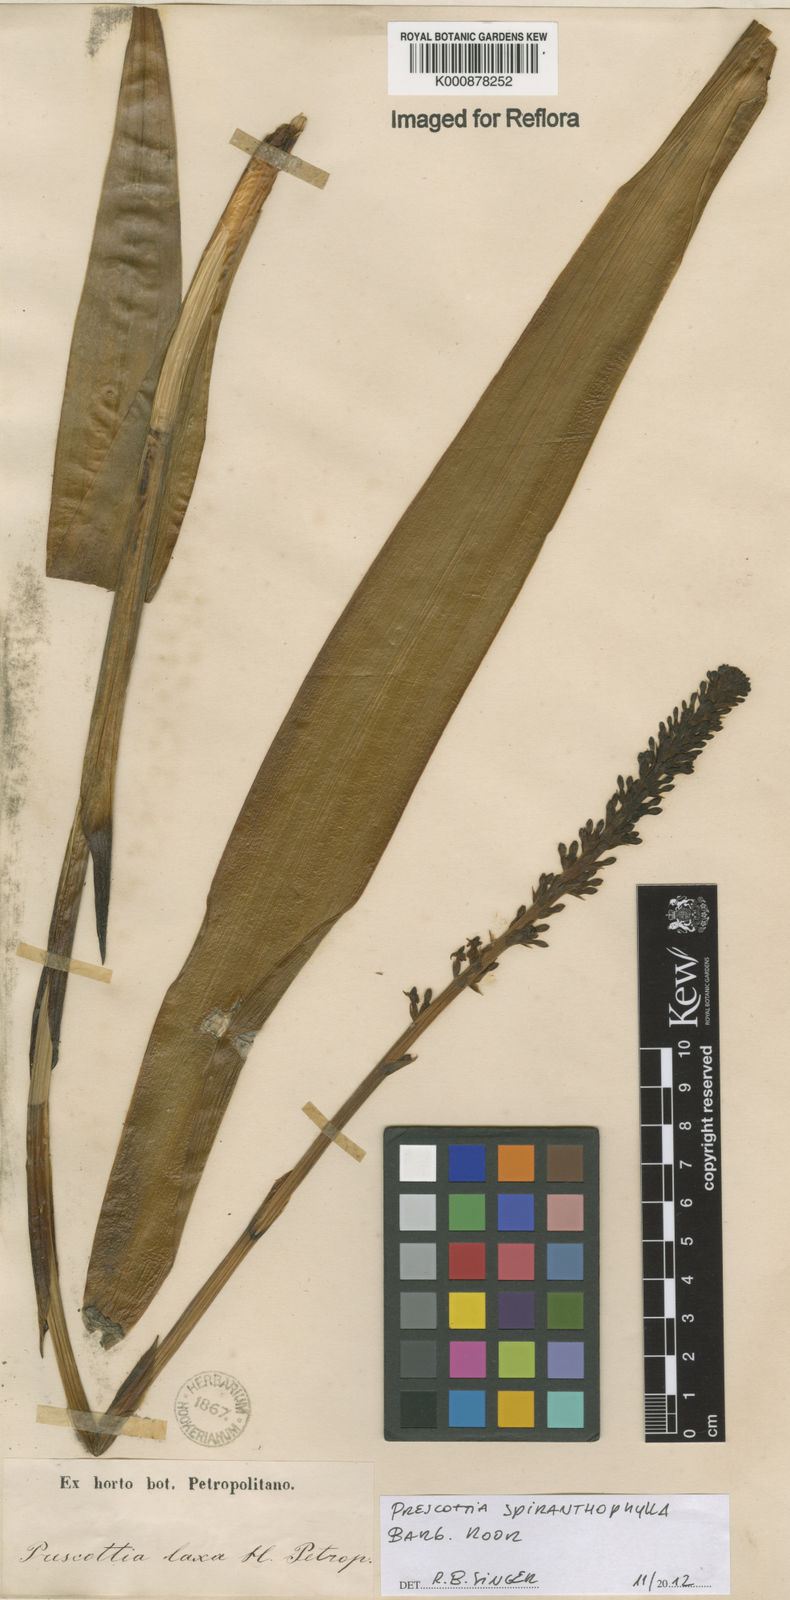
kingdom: Plantae
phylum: Tracheophyta
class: Liliopsida
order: Asparagales
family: Orchidaceae
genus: Prescottia
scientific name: Prescottia spiranthophylla
